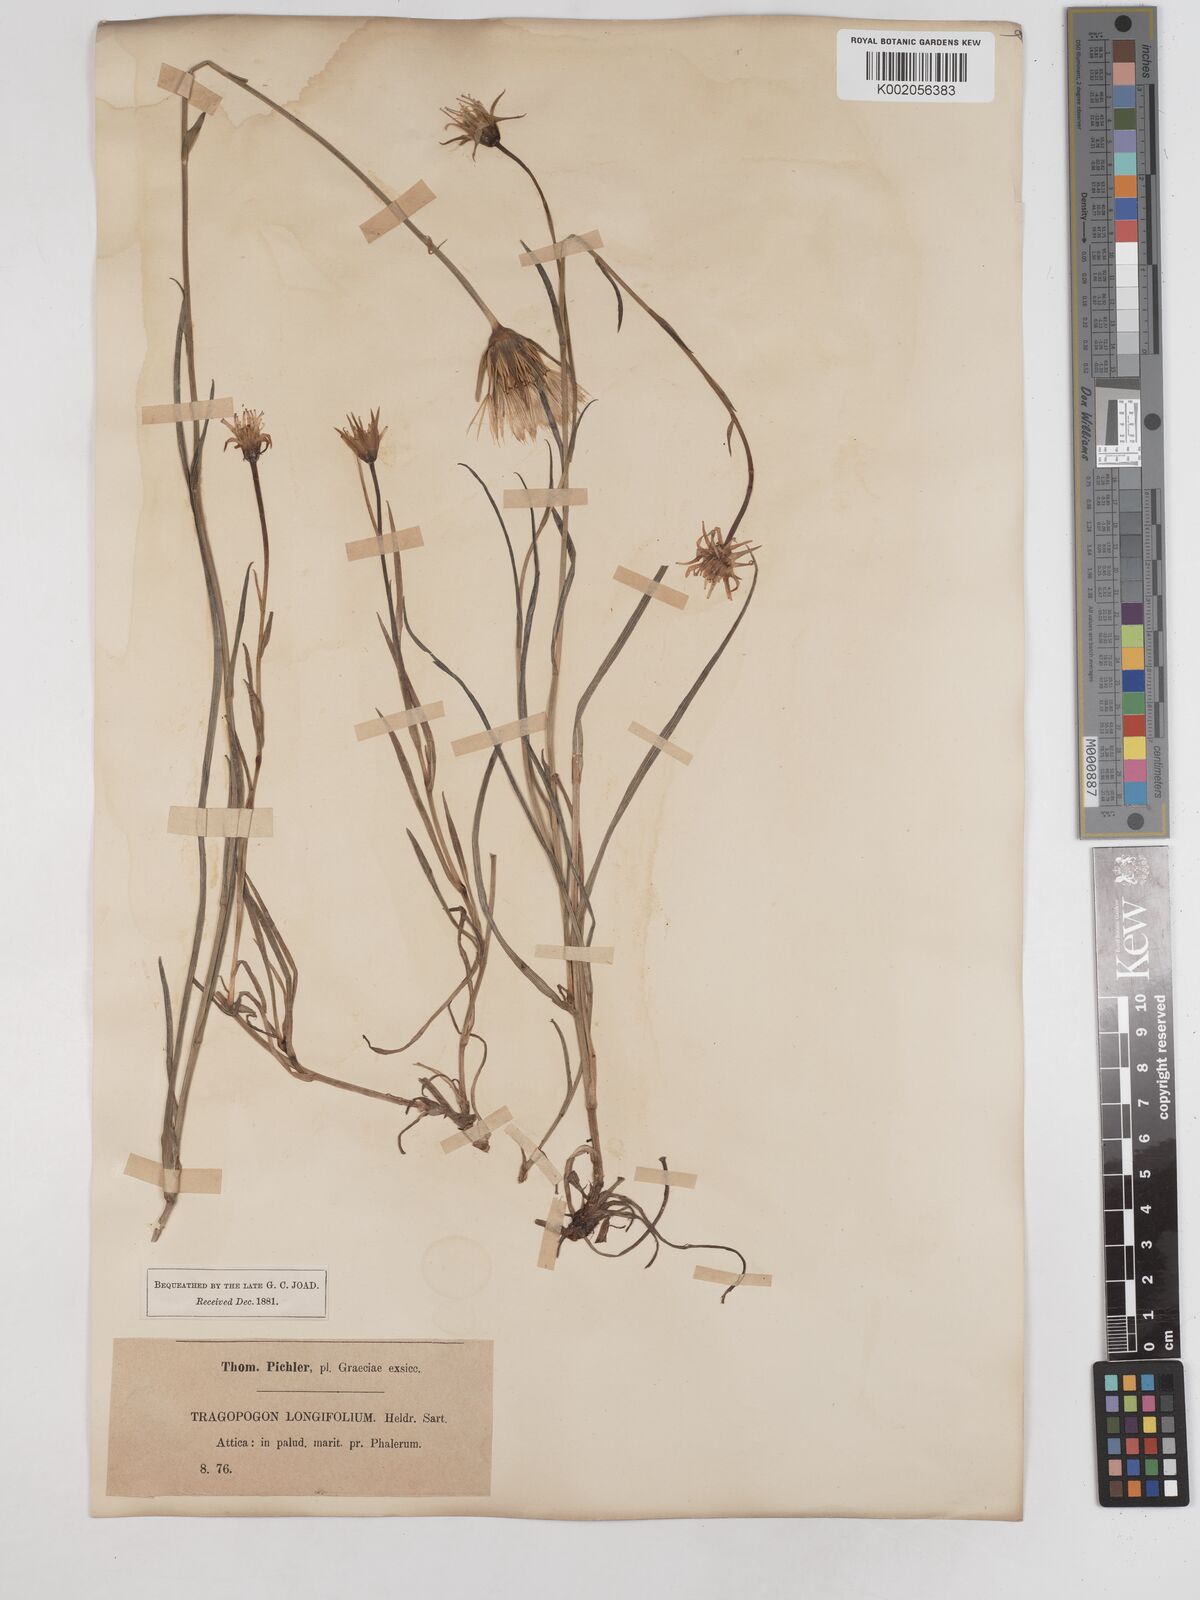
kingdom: Plantae
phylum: Tracheophyta
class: Magnoliopsida
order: Asterales
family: Asteraceae
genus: Tragopogon
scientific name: Tragopogon longifolius
